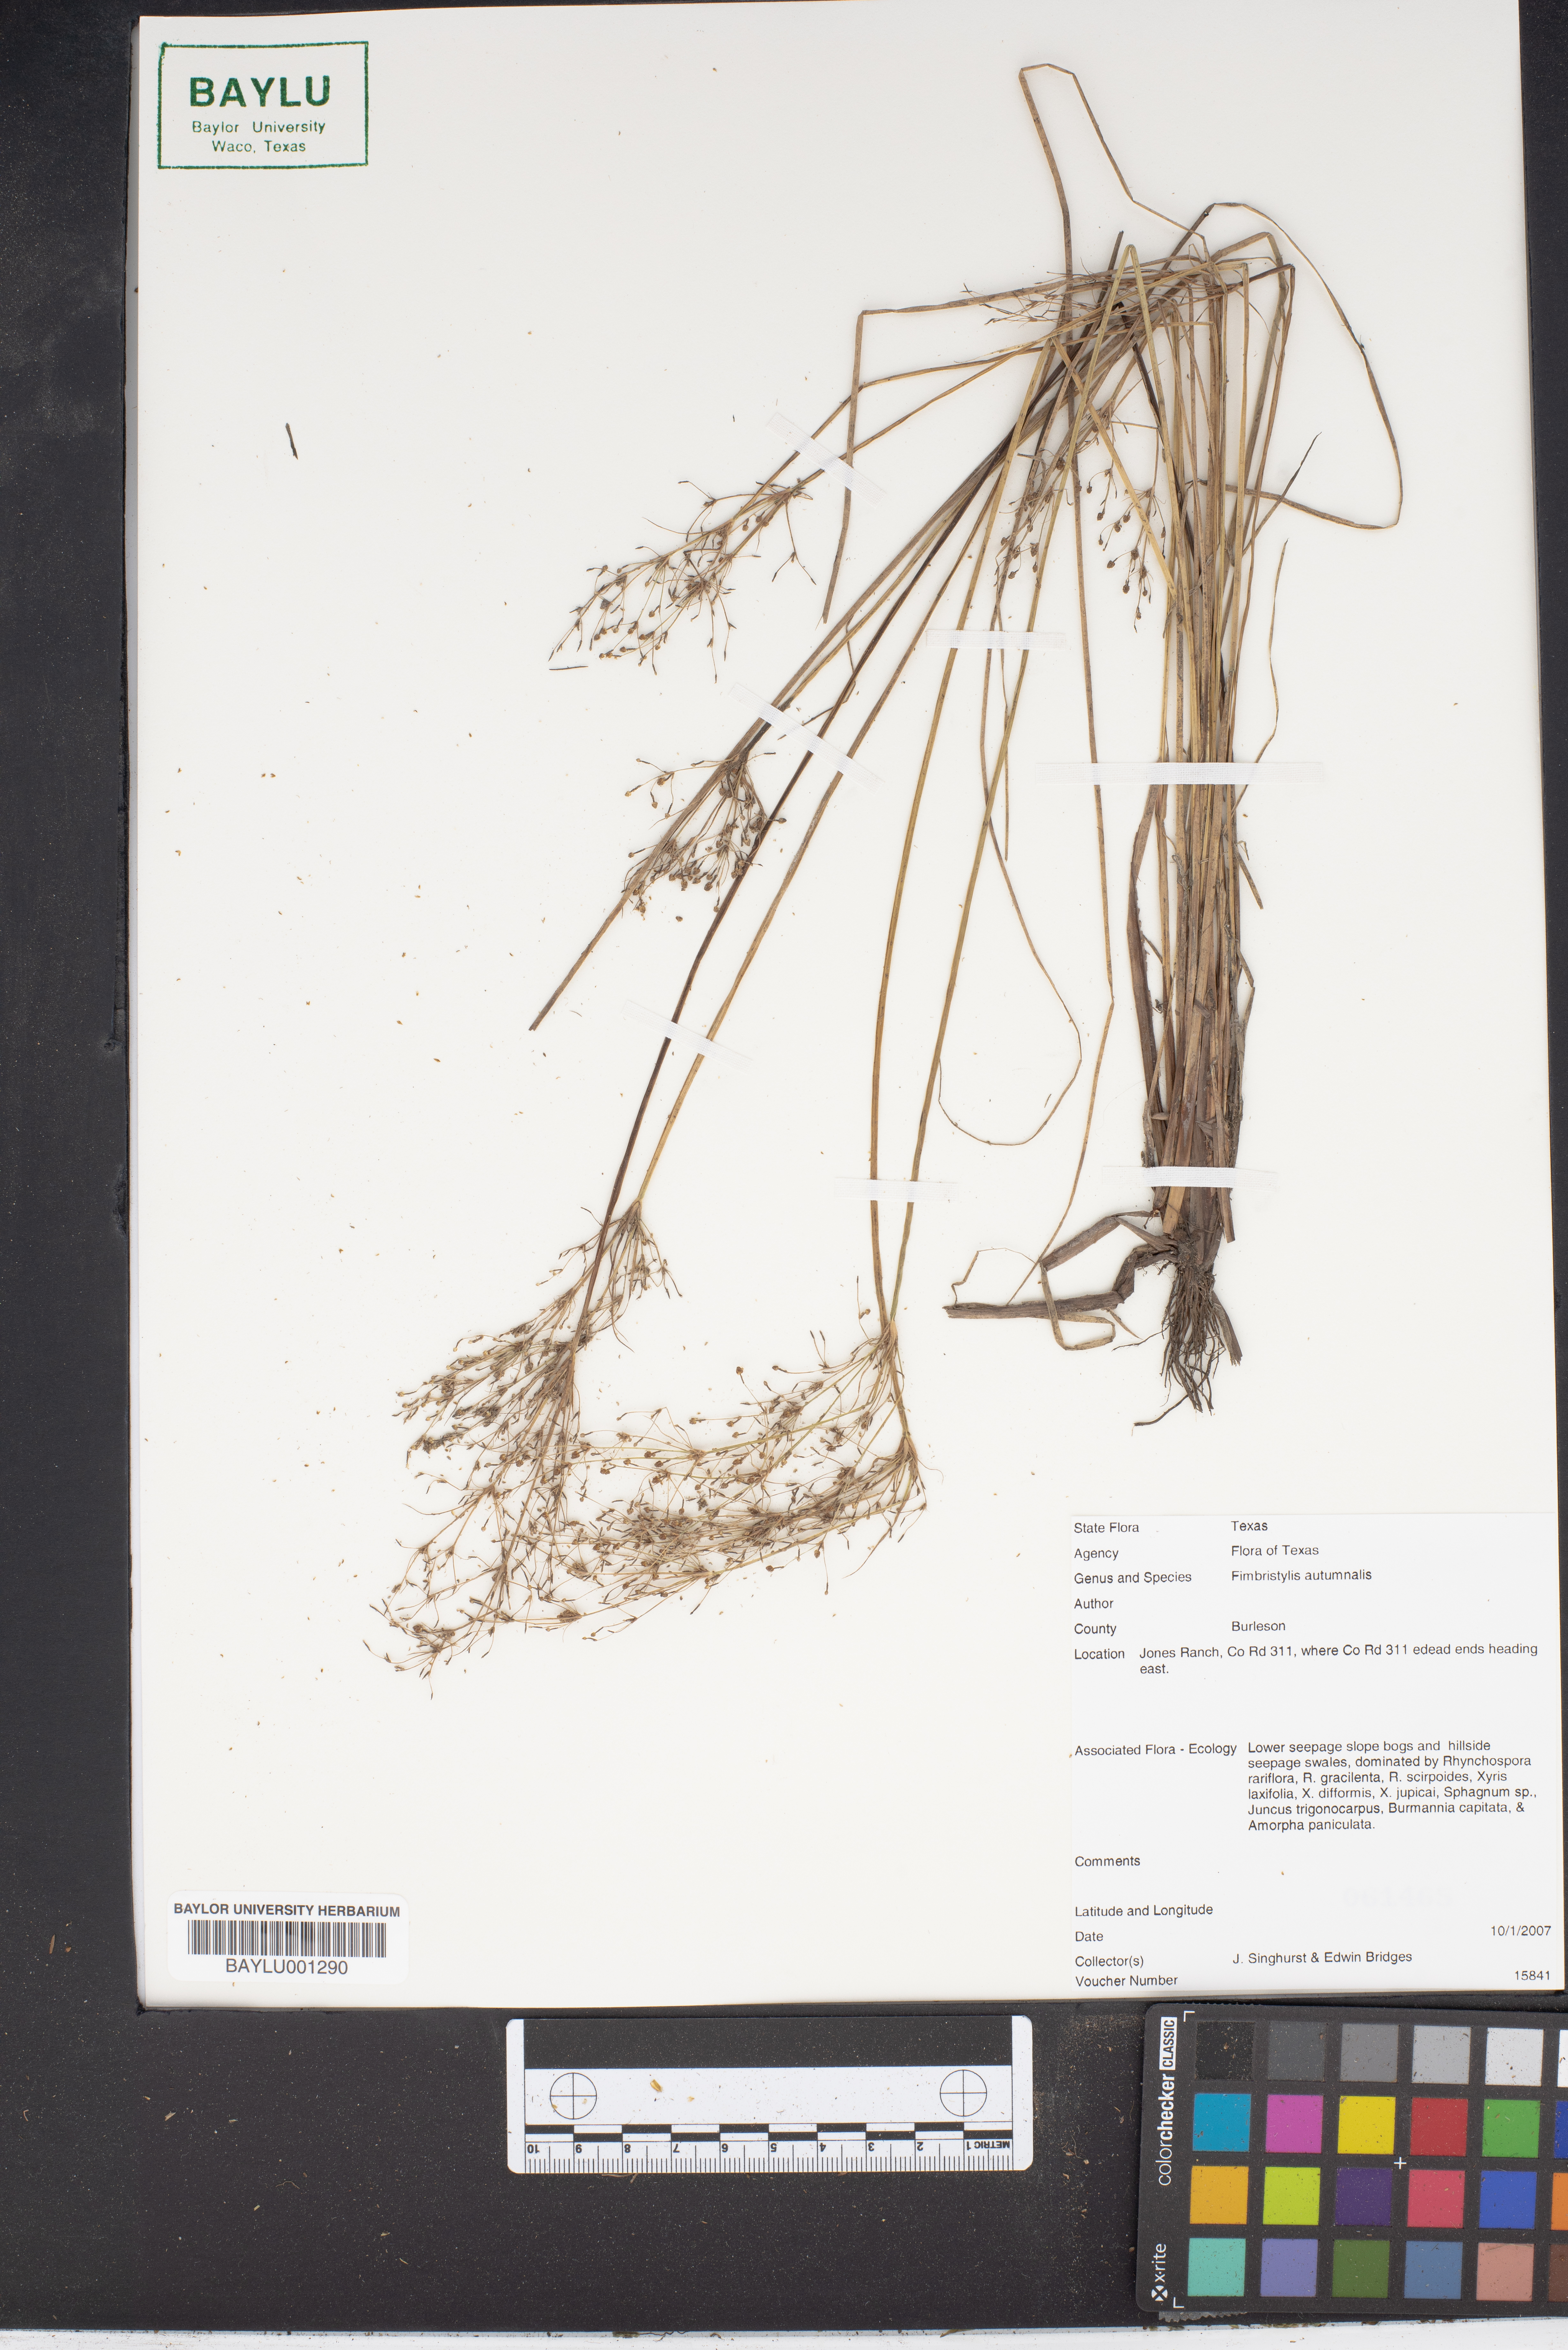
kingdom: Plantae
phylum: Tracheophyta
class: Liliopsida
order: Poales
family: Cyperaceae
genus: Fimbristylis
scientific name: Fimbristylis autumnalis
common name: Slender fimbristylis
